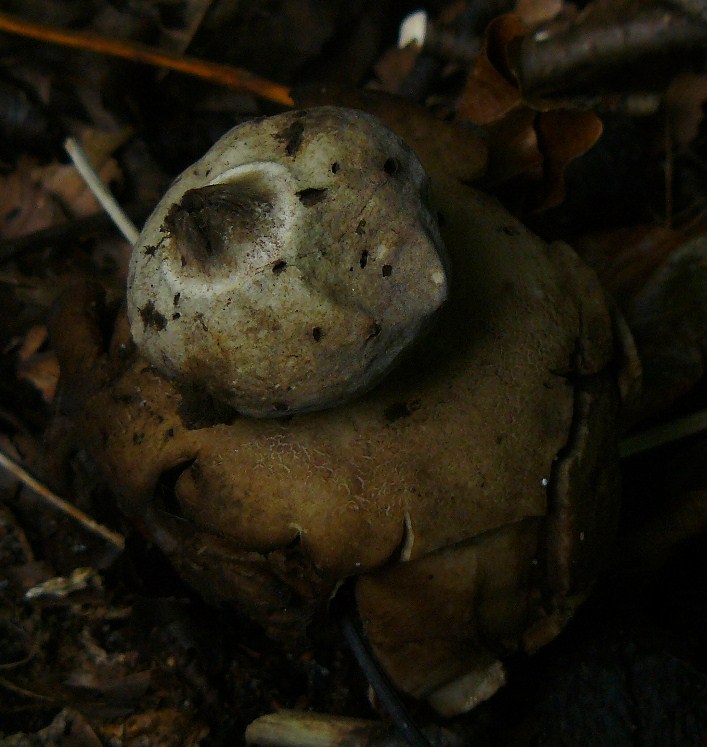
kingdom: Fungi
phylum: Basidiomycota
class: Agaricomycetes
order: Geastrales
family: Geastraceae
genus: Geastrum
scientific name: Geastrum michelianum
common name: kødet stjernebold
